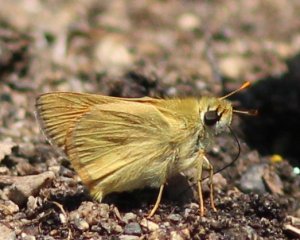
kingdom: Animalia
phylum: Arthropoda
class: Insecta
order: Lepidoptera
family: Hesperiidae
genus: Ochlodes
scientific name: Ochlodes sylvanoides
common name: Woodland Skipper
